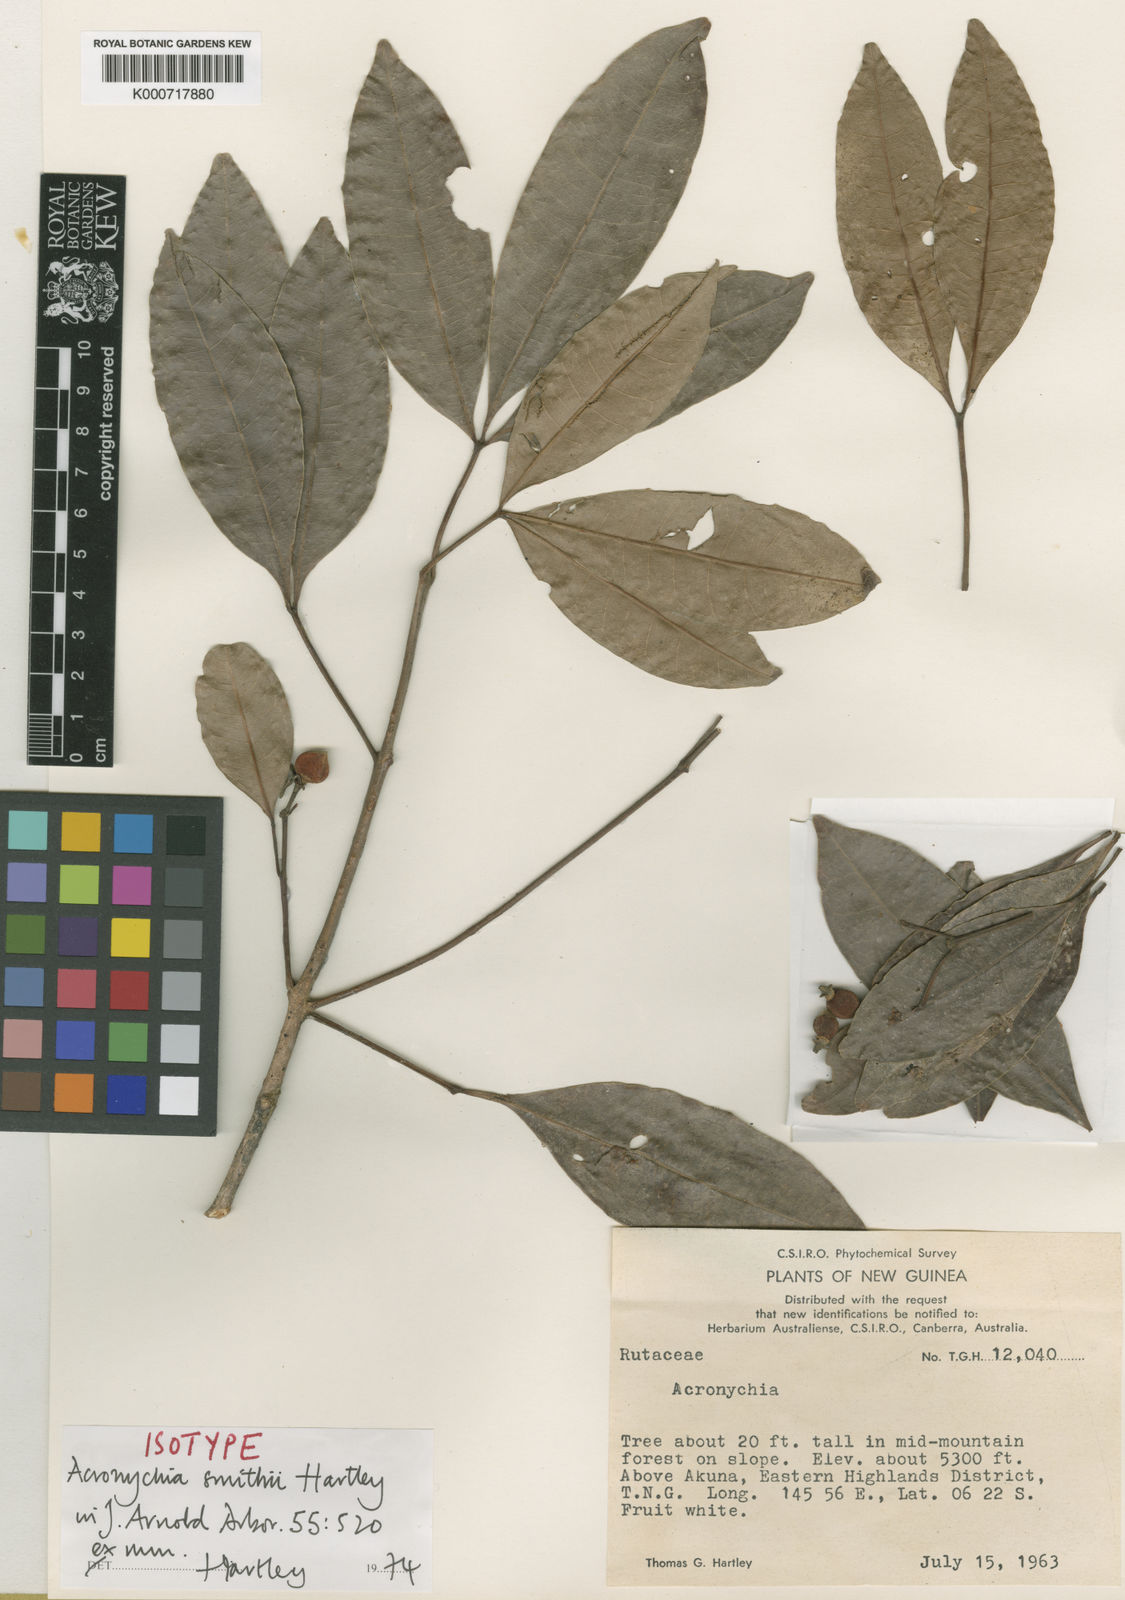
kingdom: Plantae
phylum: Tracheophyta
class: Magnoliopsida
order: Sapindales
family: Rutaceae
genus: Acronychia
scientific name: Acronychia smithii
